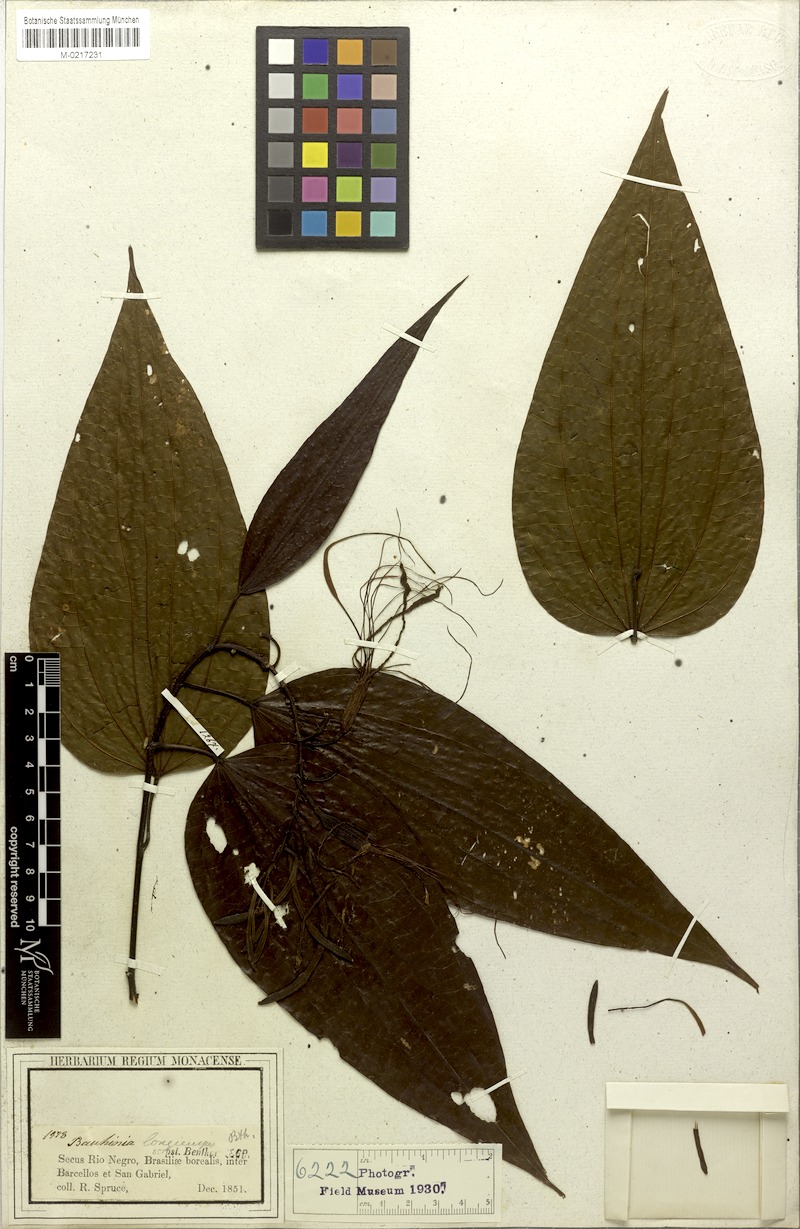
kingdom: Plantae
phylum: Tracheophyta
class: Magnoliopsida
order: Fabales
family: Fabaceae
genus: Bauhinia
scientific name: Bauhinia longicuspis
